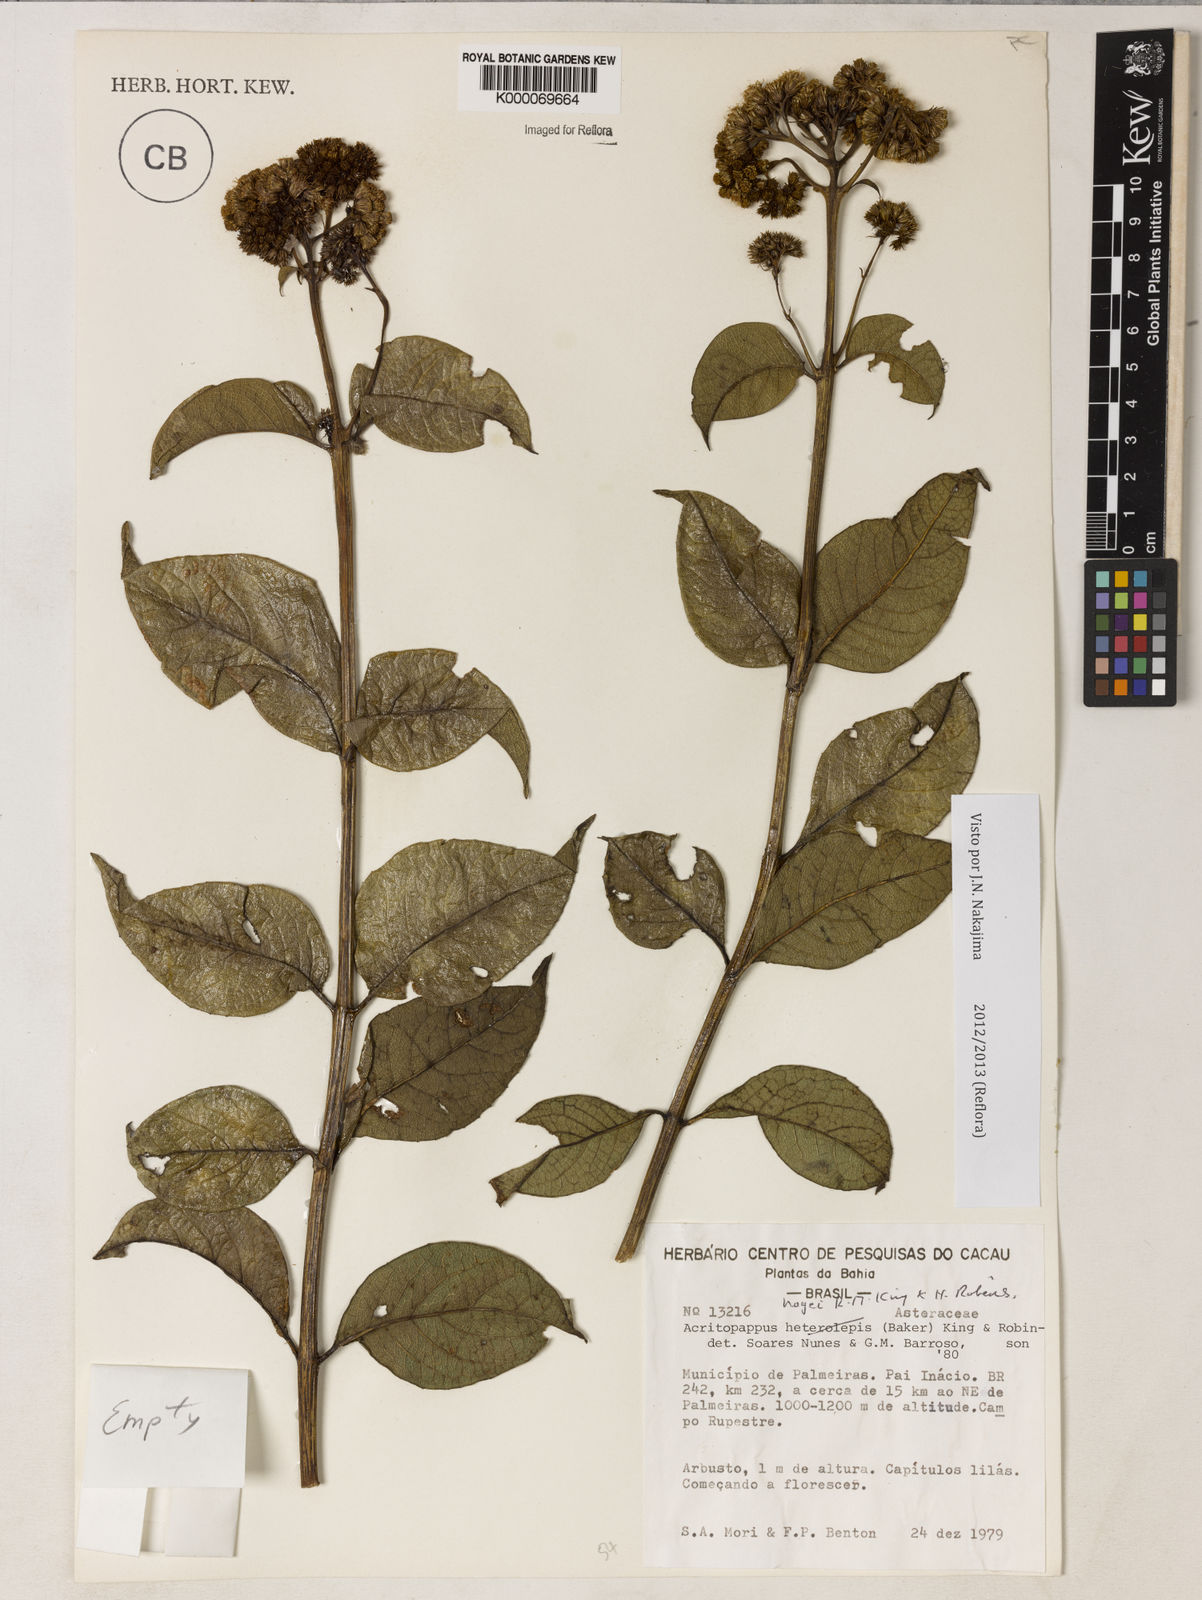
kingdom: Plantae
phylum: Tracheophyta
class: Magnoliopsida
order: Asterales
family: Asteraceae
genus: Acritopappus
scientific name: Acritopappus heterolepis
